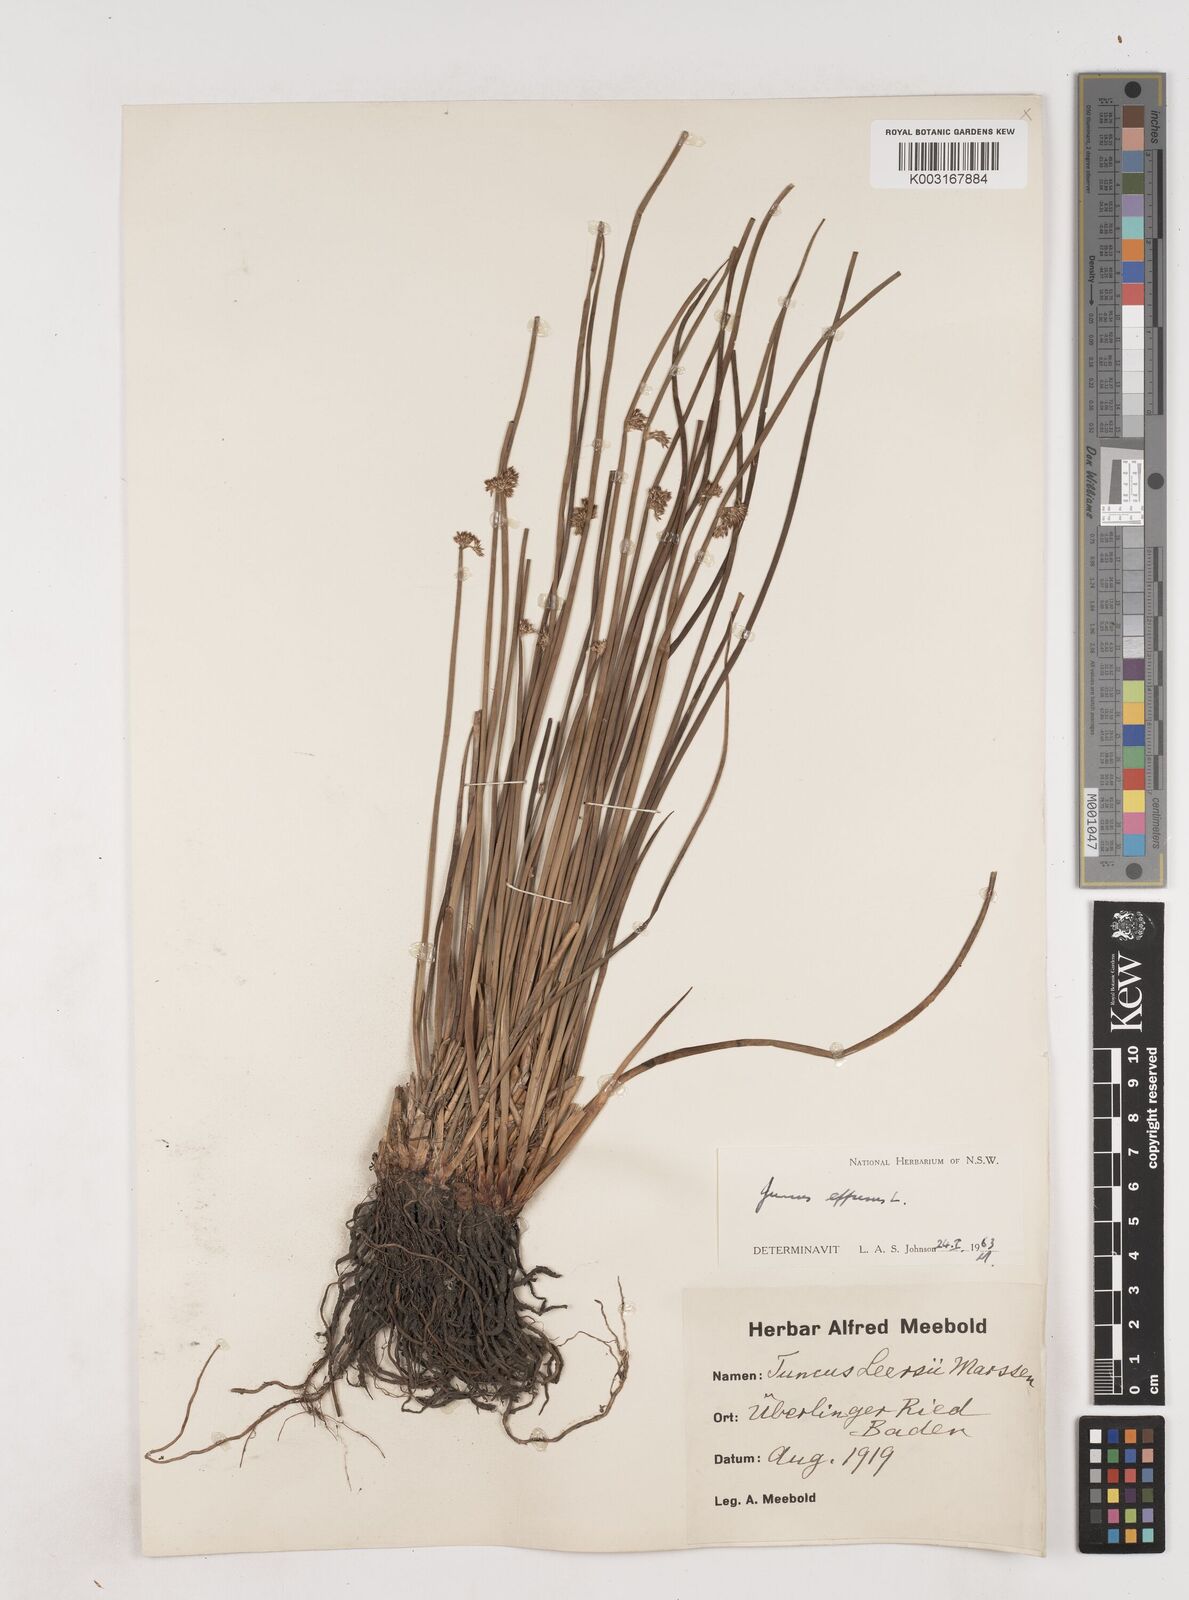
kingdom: Plantae
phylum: Tracheophyta
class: Liliopsida
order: Poales
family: Juncaceae
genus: Juncus
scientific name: Juncus effusus
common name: Soft rush
